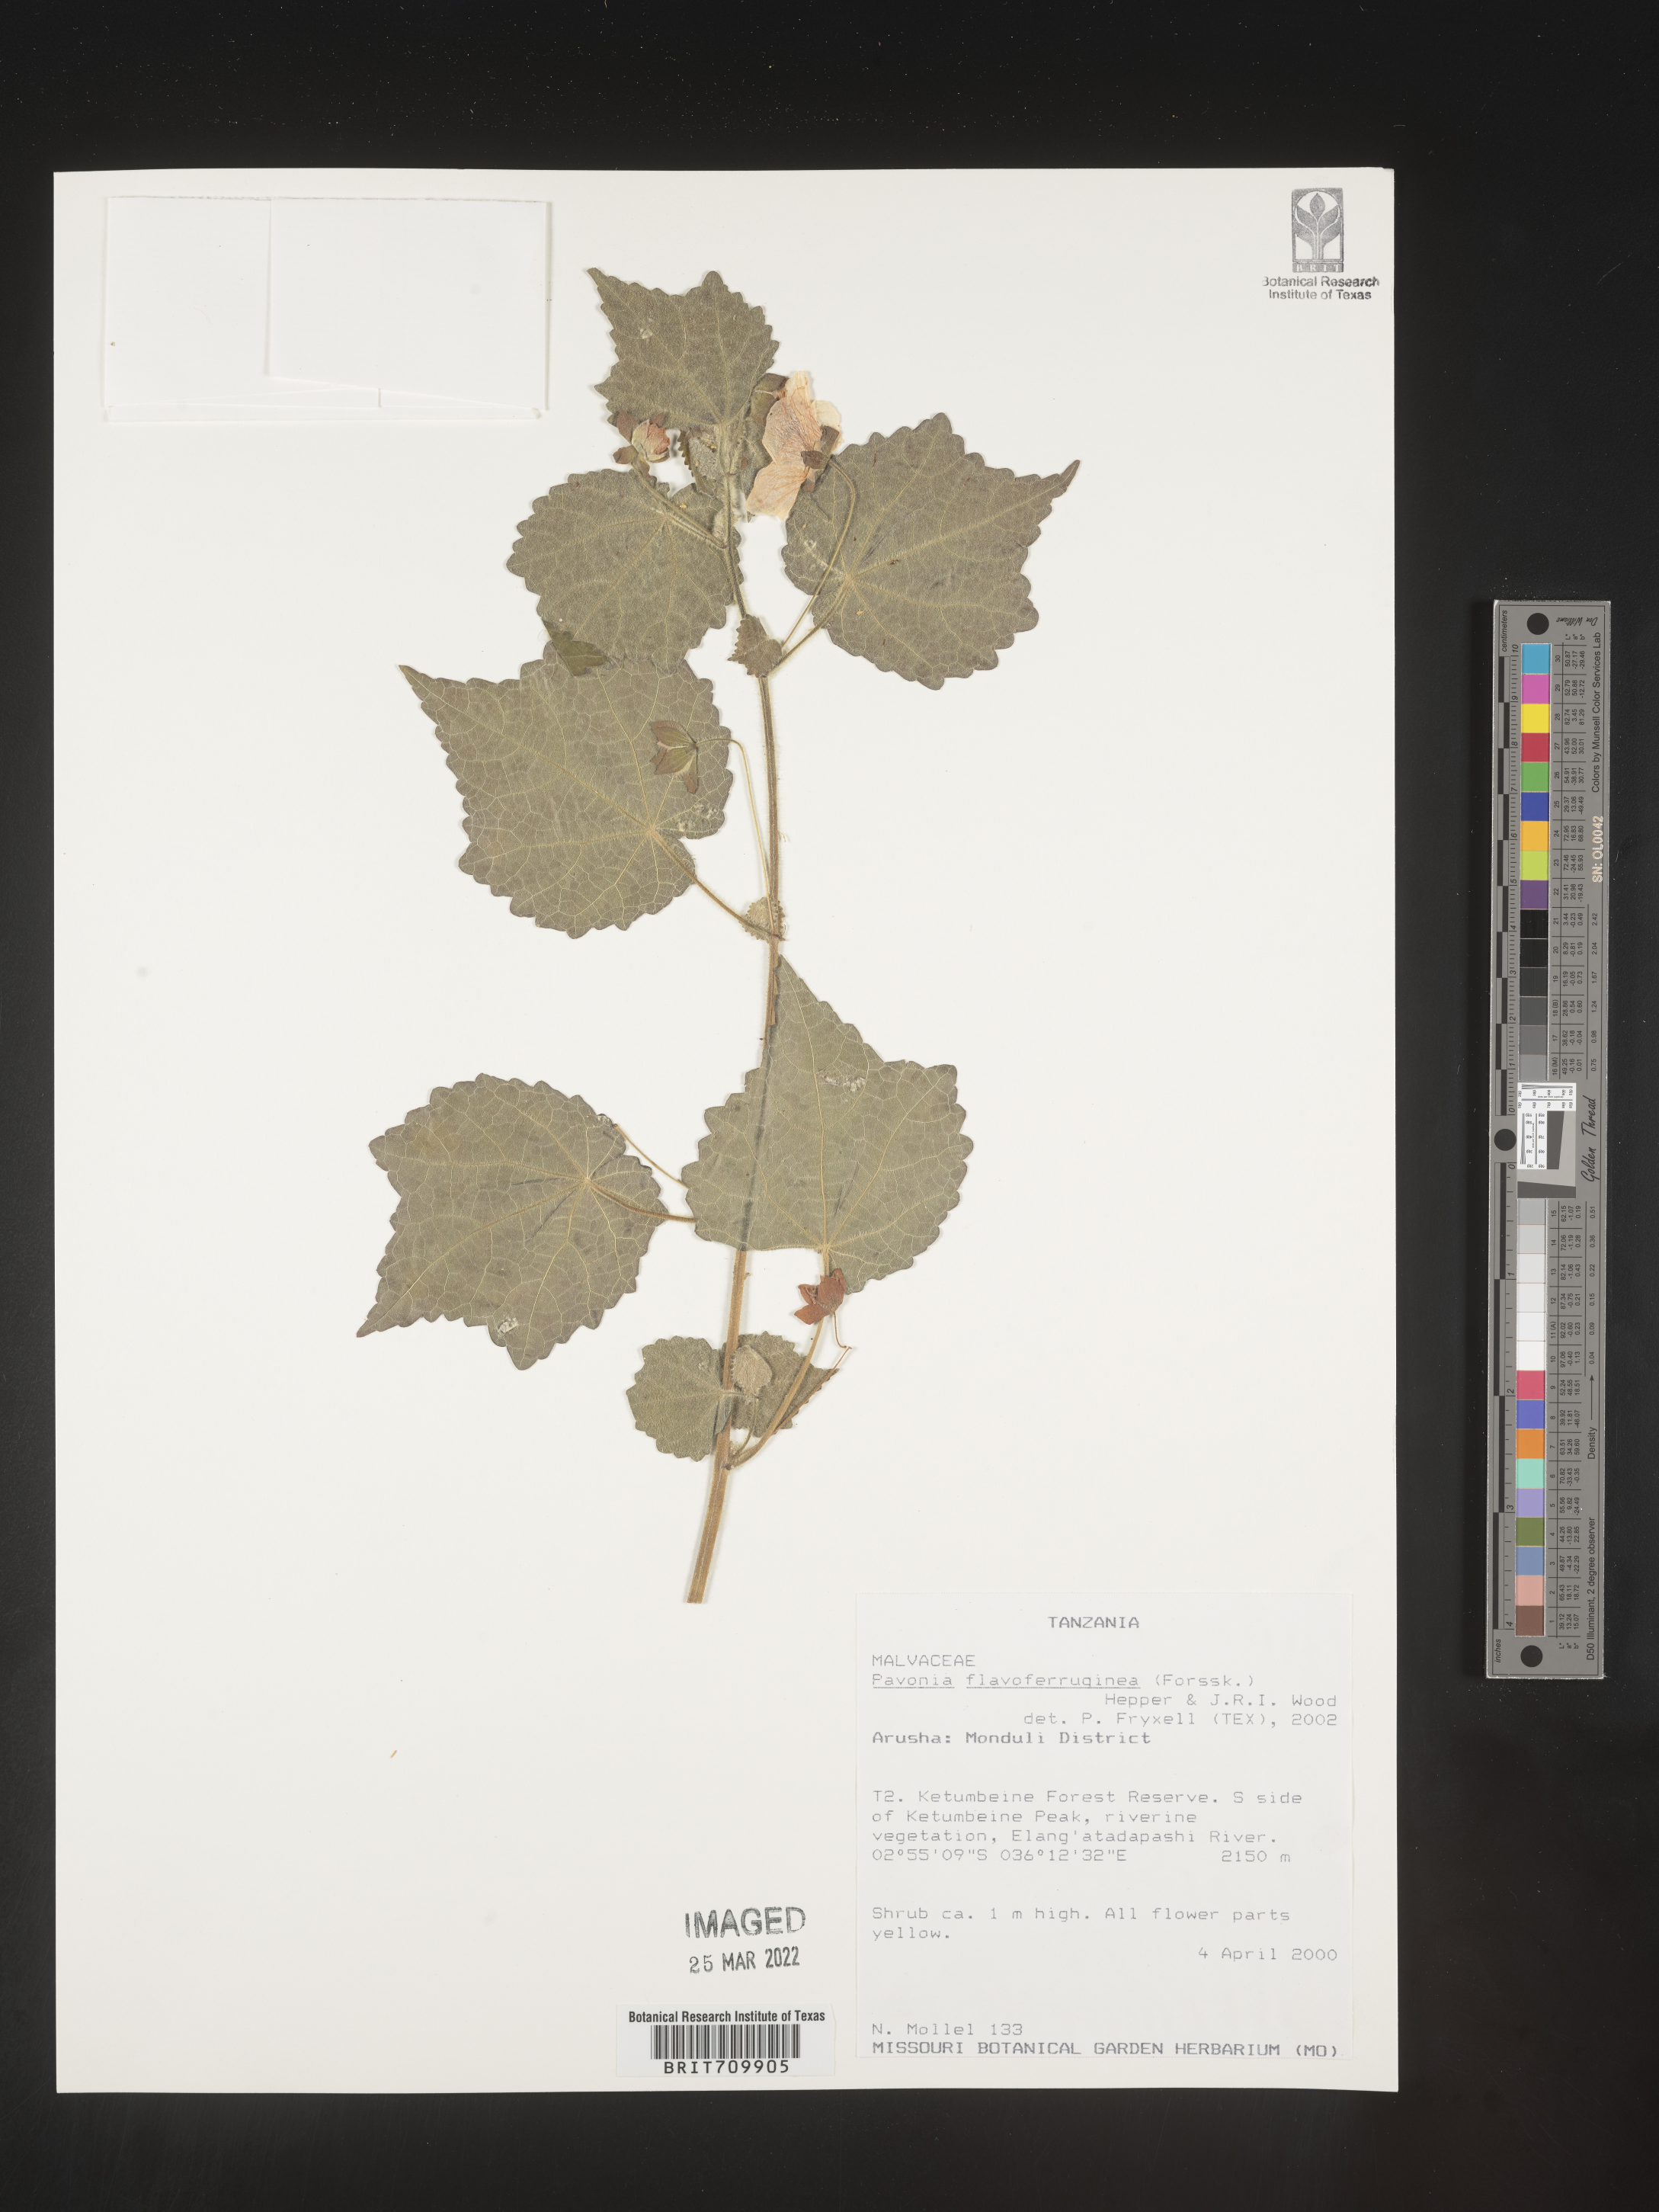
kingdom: Plantae
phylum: Tracheophyta
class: Magnoliopsida
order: Malvales
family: Malvaceae
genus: Pavonia
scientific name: Pavonia
